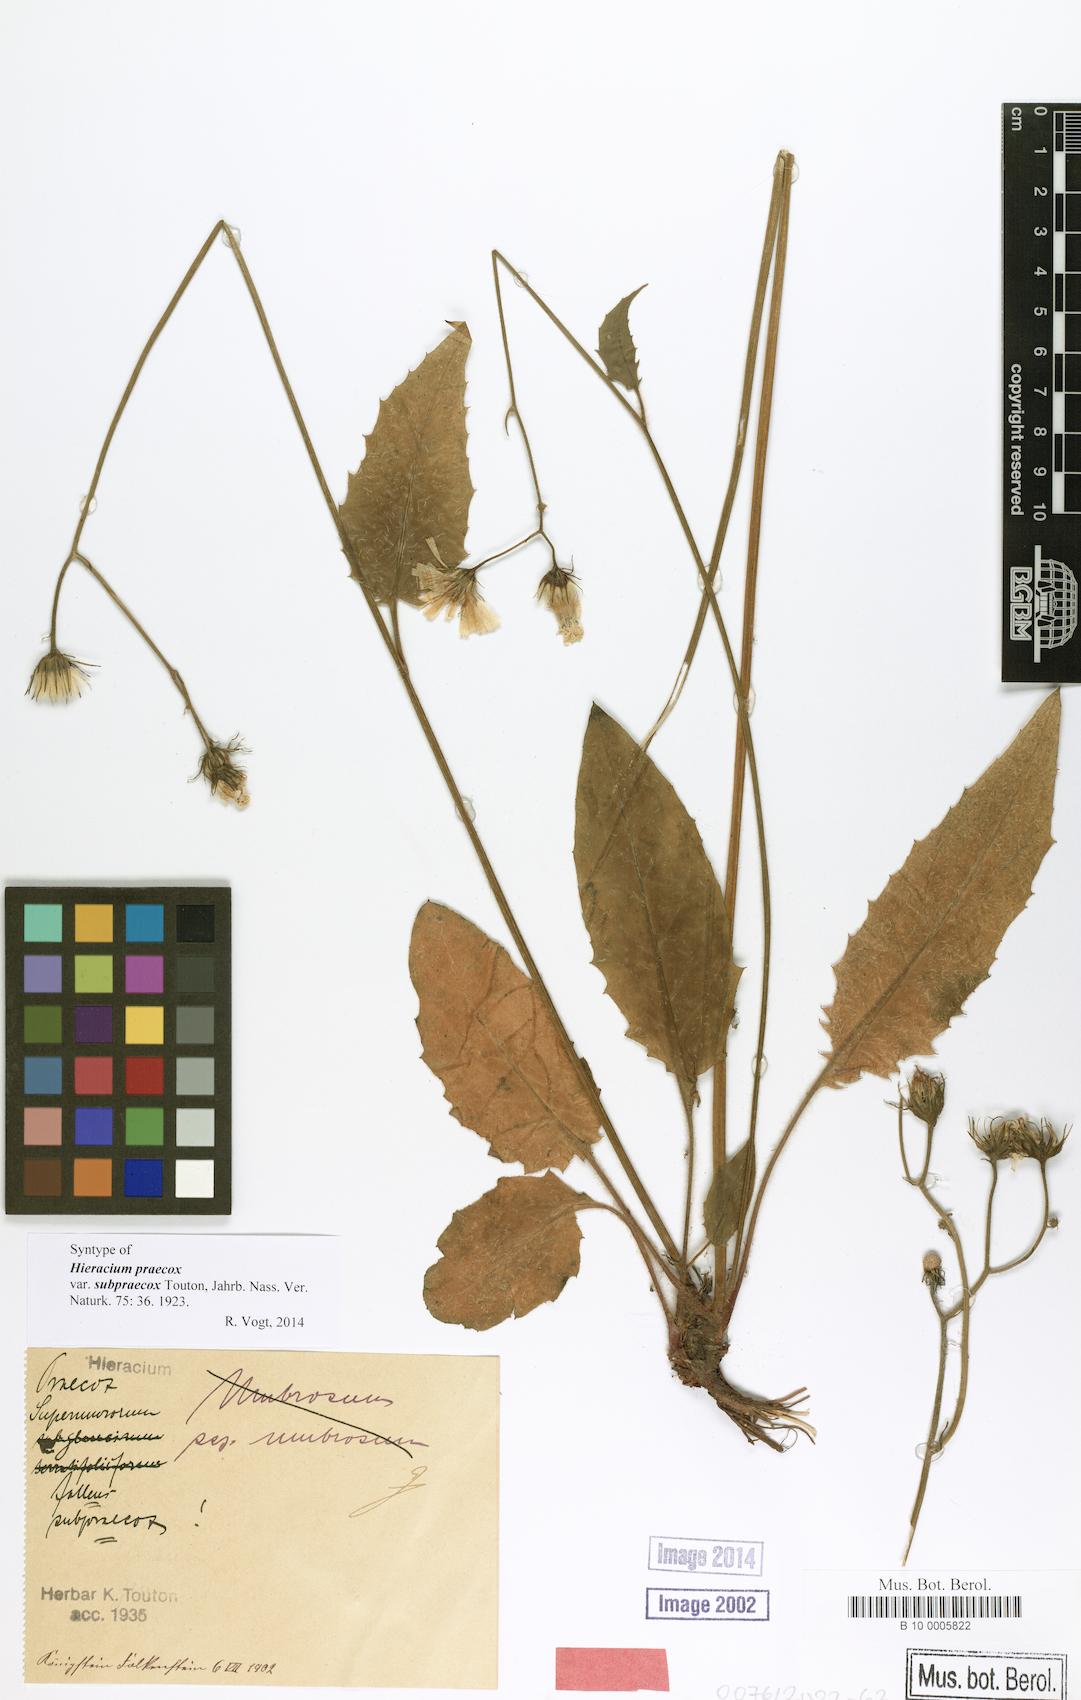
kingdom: Plantae
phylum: Tracheophyta
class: Magnoliopsida
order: Asterales
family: Asteraceae
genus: Hieracium
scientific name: Hieracium praecox
